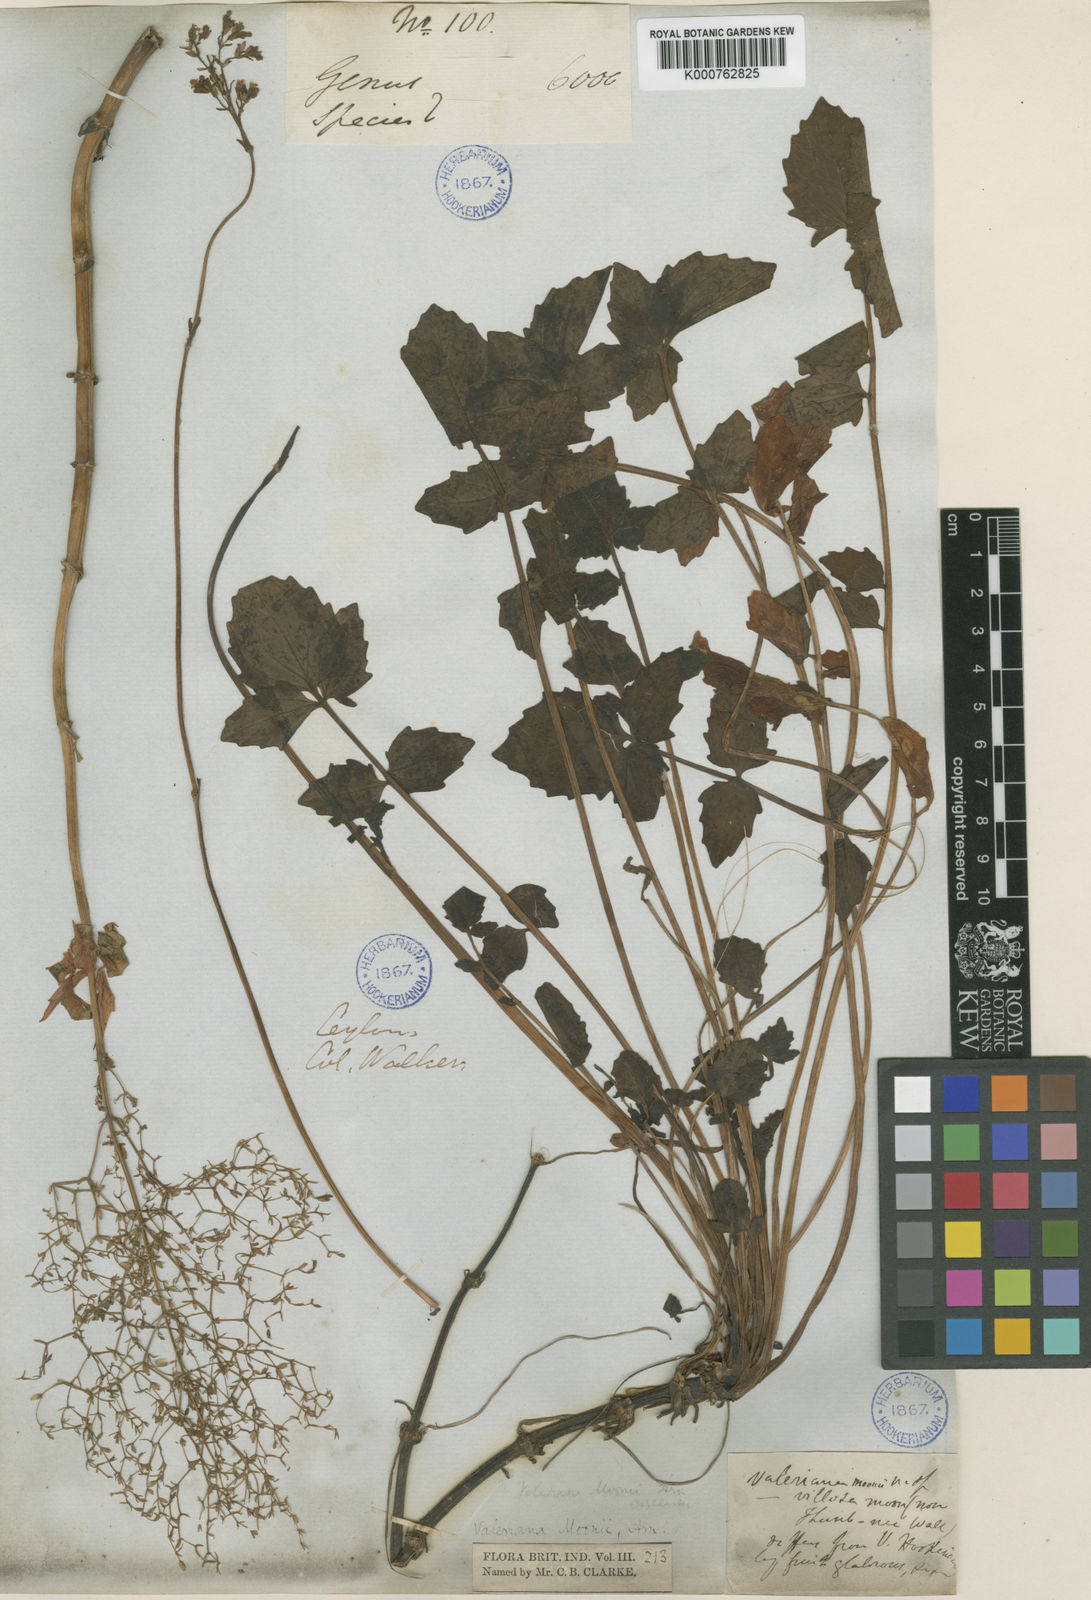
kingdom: Plantae
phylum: Tracheophyta
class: Magnoliopsida
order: Dipsacales
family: Caprifoliaceae
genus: Valeriana
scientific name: Valeriana moonii
